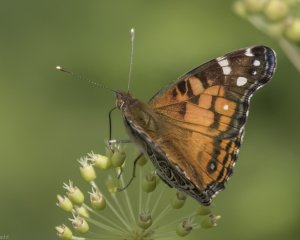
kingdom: Animalia
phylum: Arthropoda
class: Insecta
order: Lepidoptera
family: Nymphalidae
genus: Vanessa
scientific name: Vanessa virginiensis
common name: American Lady
